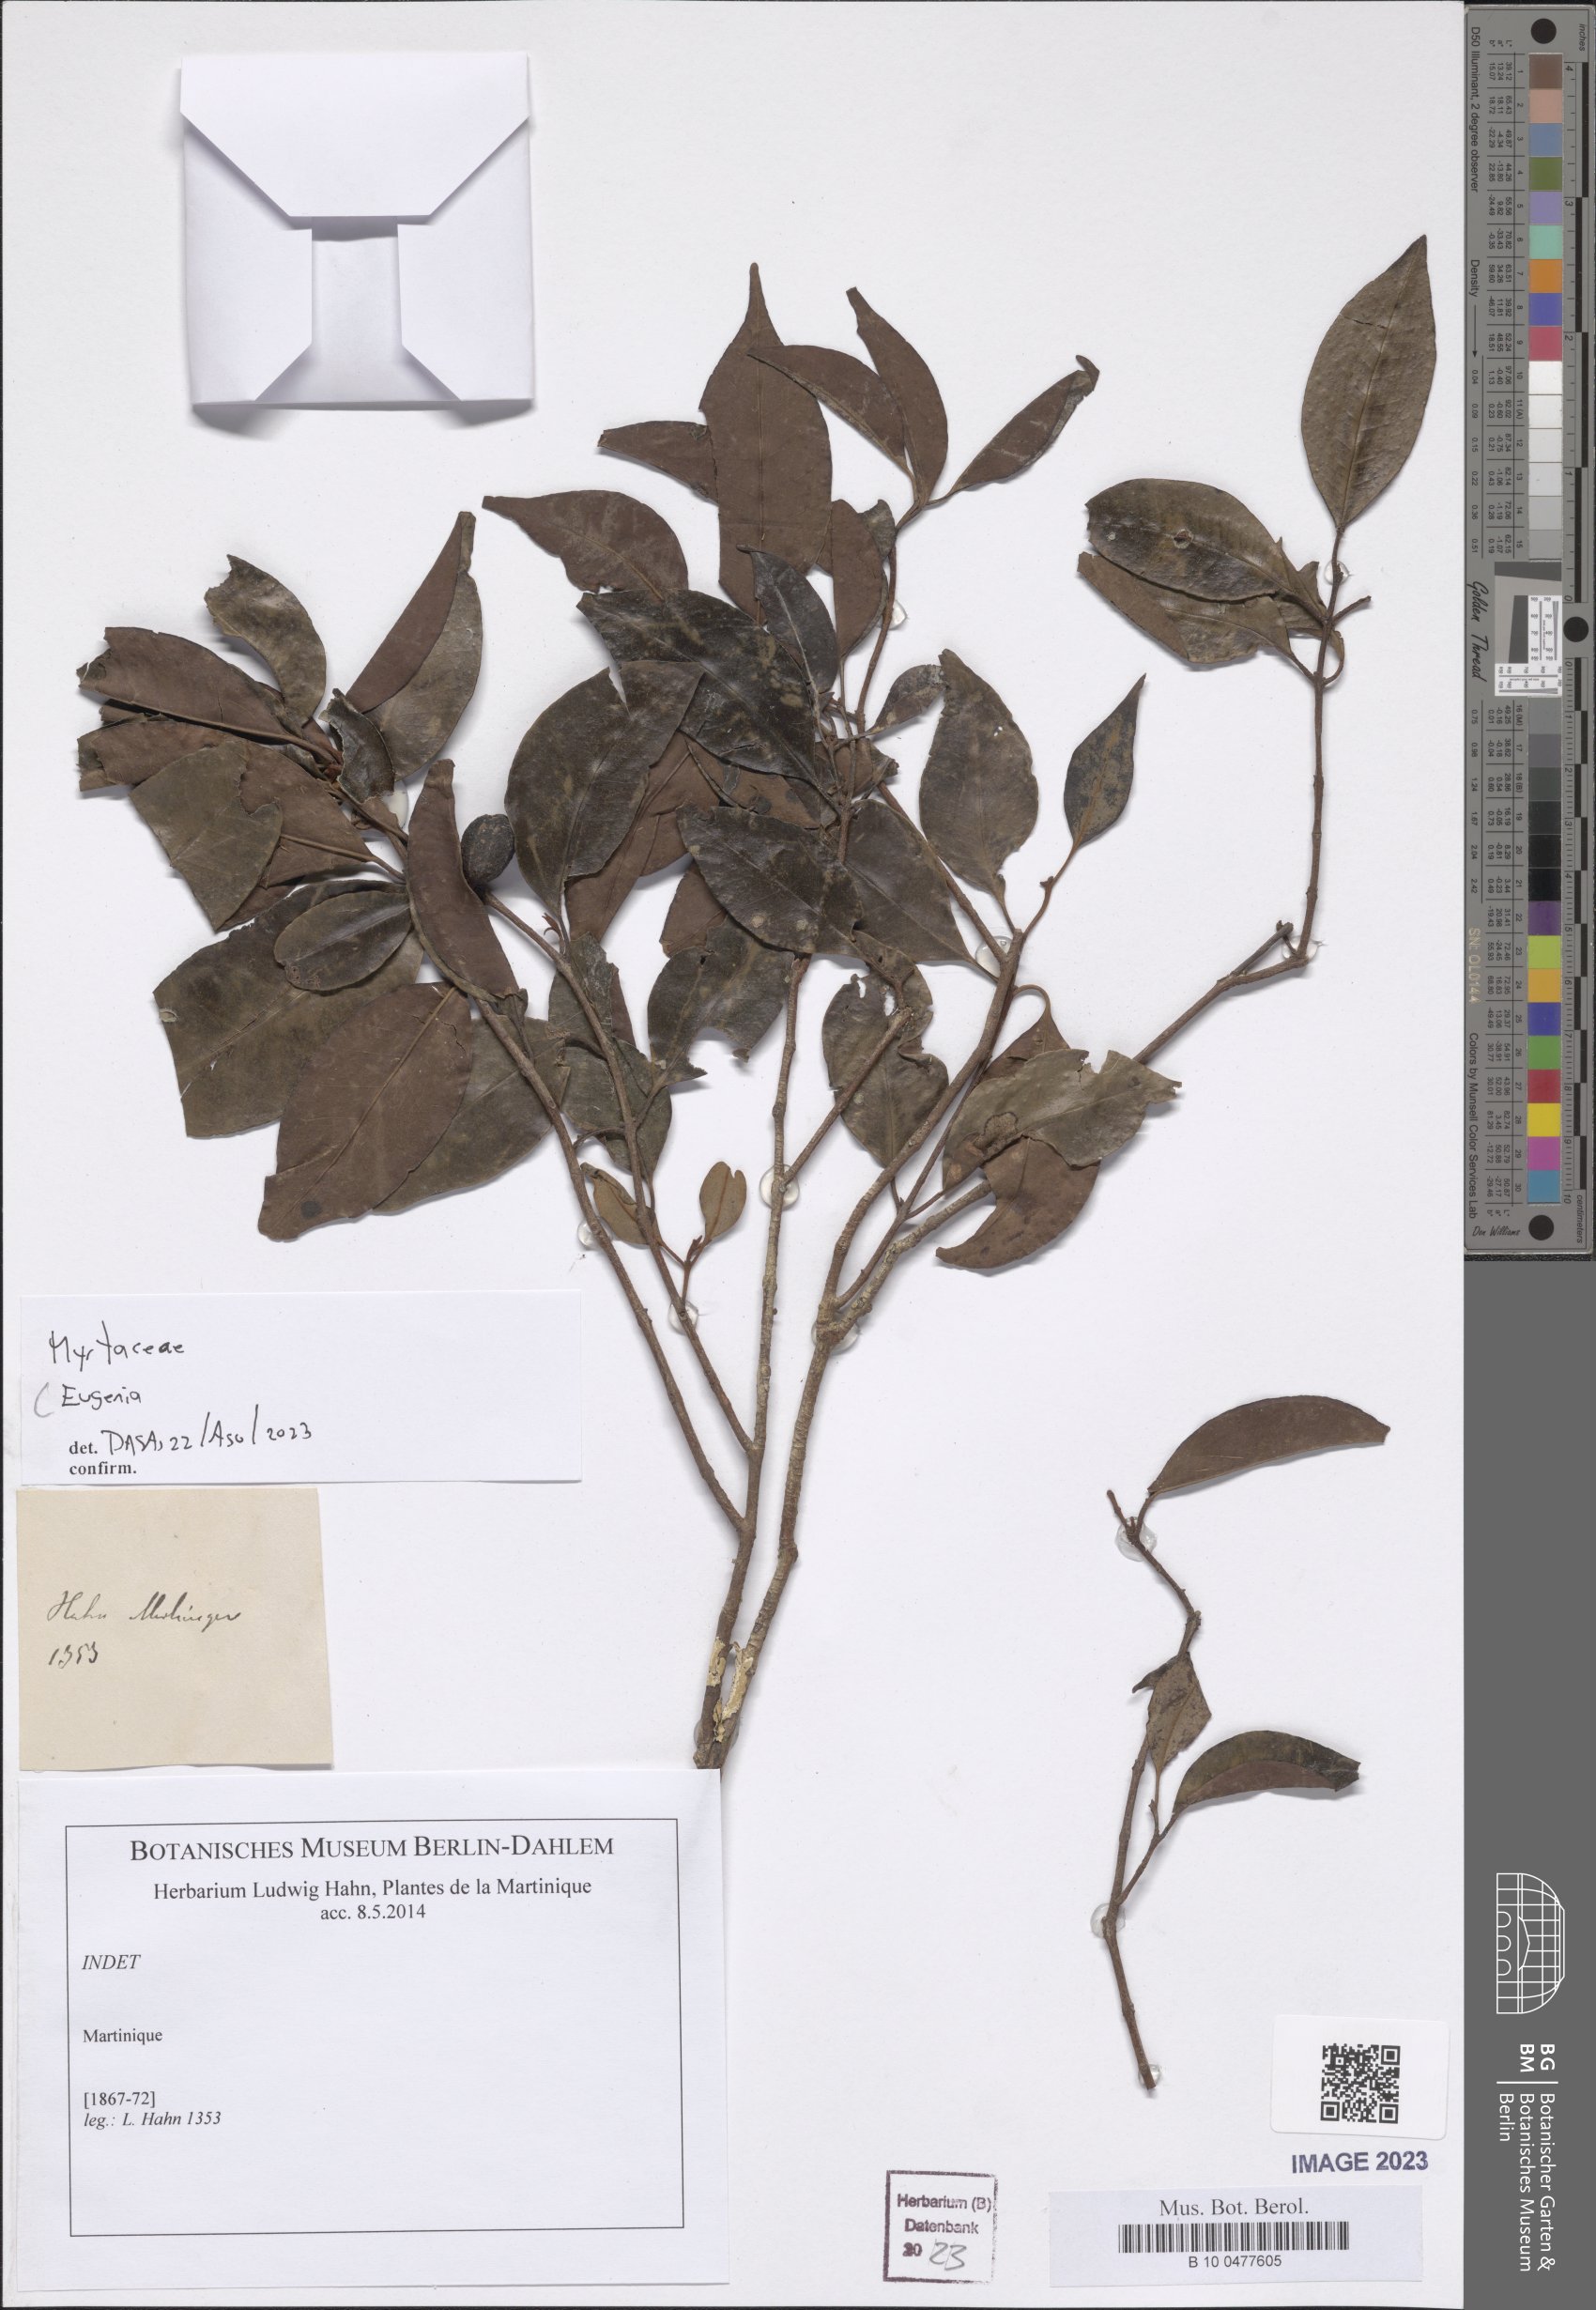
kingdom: Plantae
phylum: Tracheophyta
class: Magnoliopsida
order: Myrtales
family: Myrtaceae
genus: Eugenia
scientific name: Eugenia
